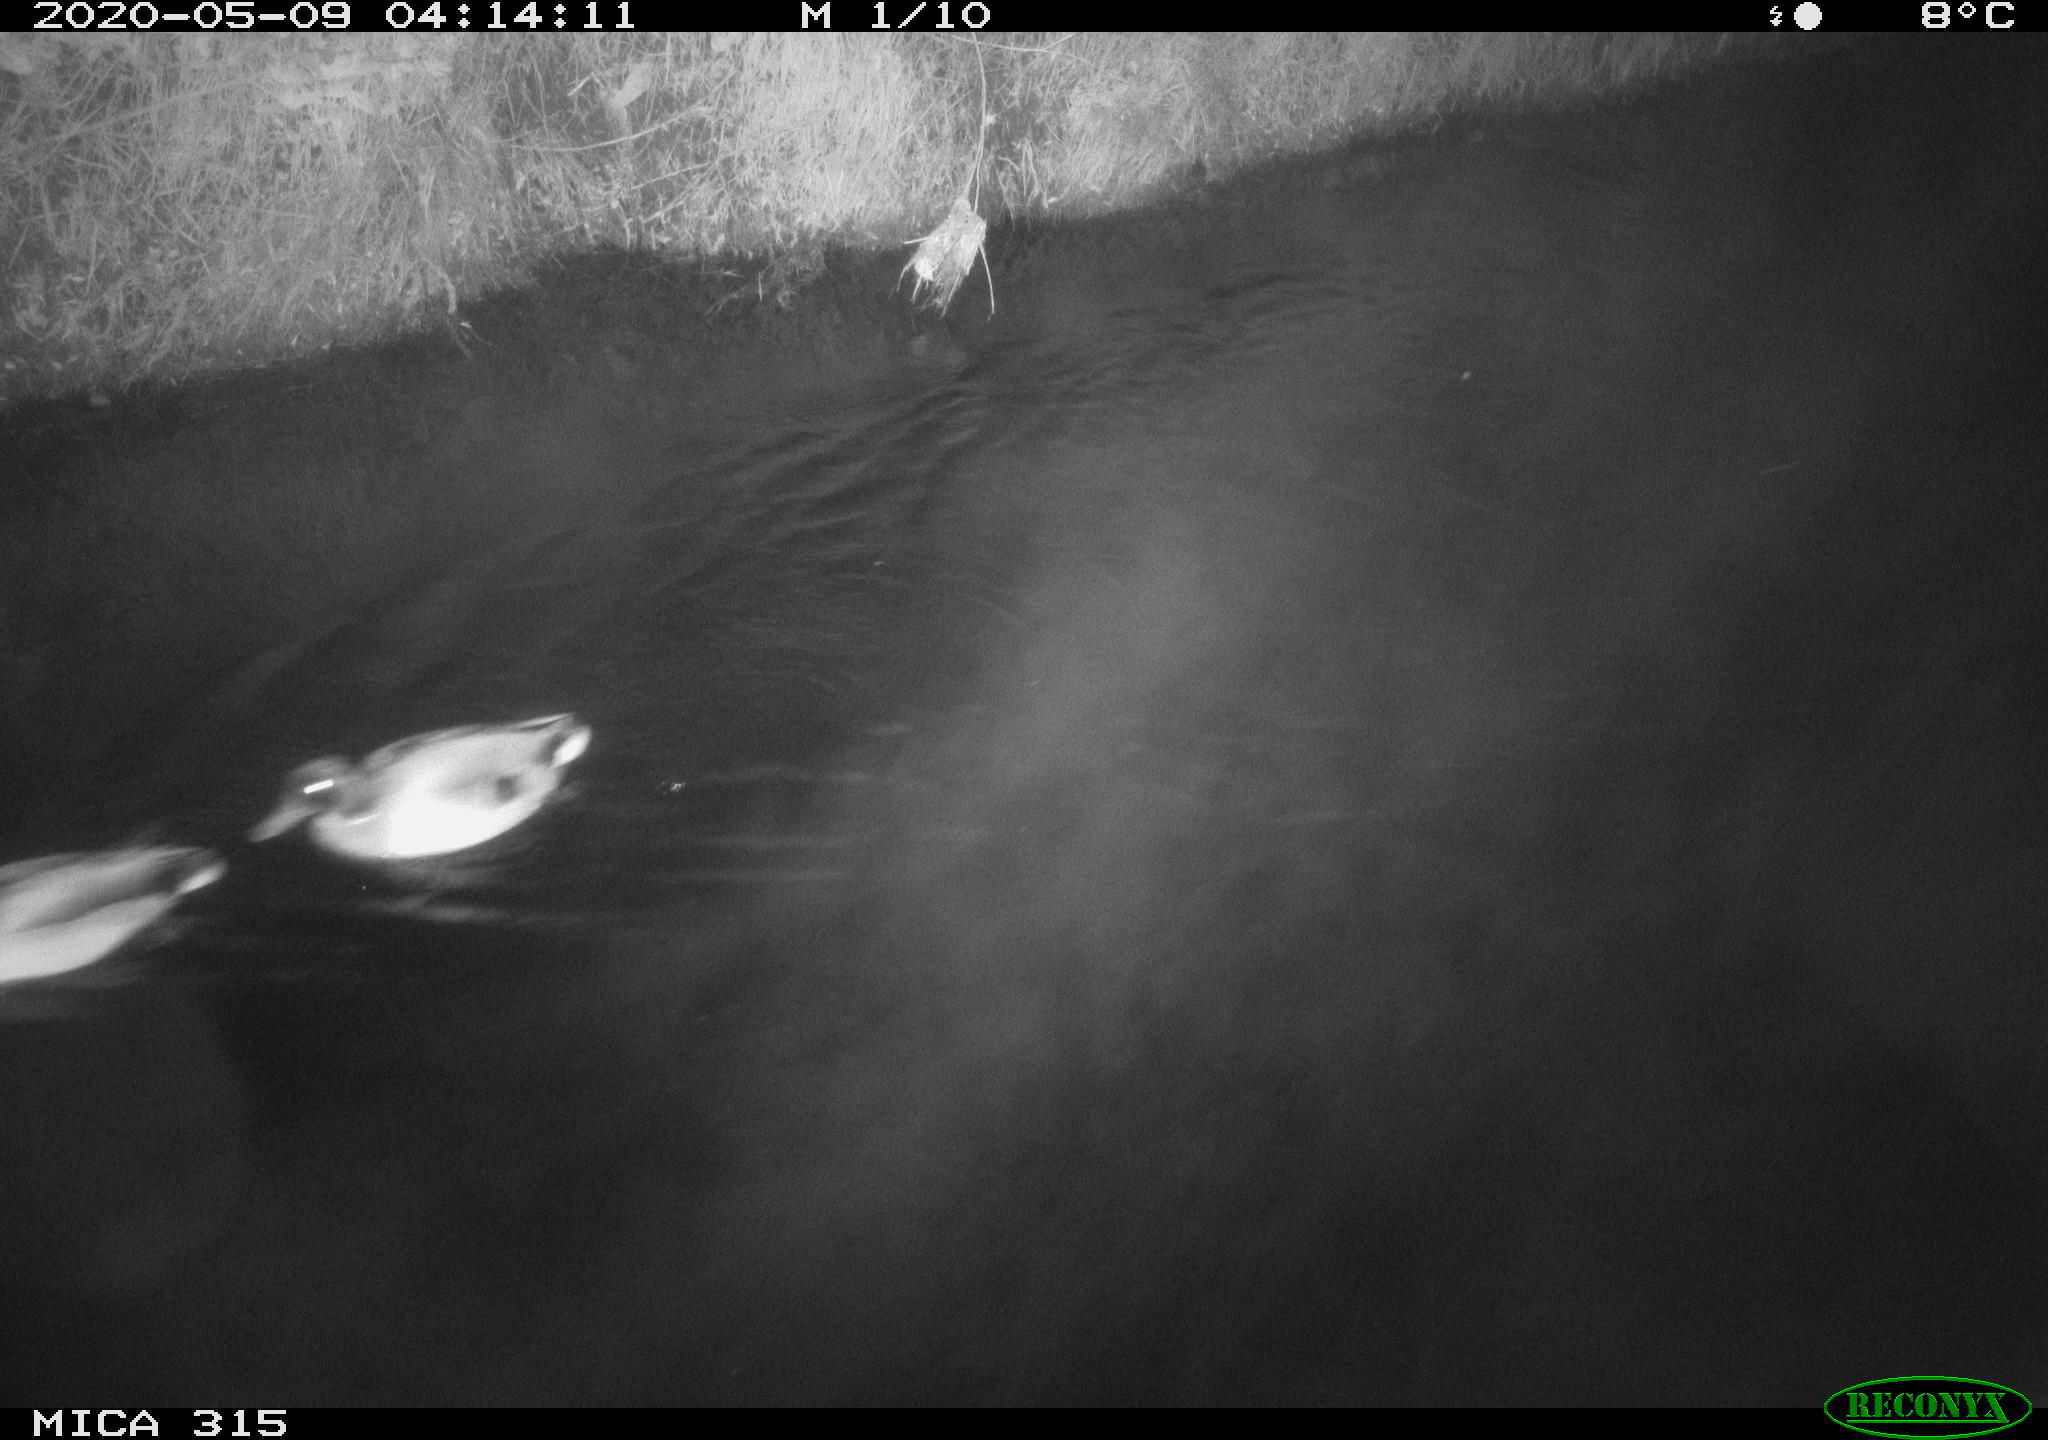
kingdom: Animalia
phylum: Chordata
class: Aves
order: Anseriformes
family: Anatidae
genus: Anas
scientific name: Anas platyrhynchos
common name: Mallard
